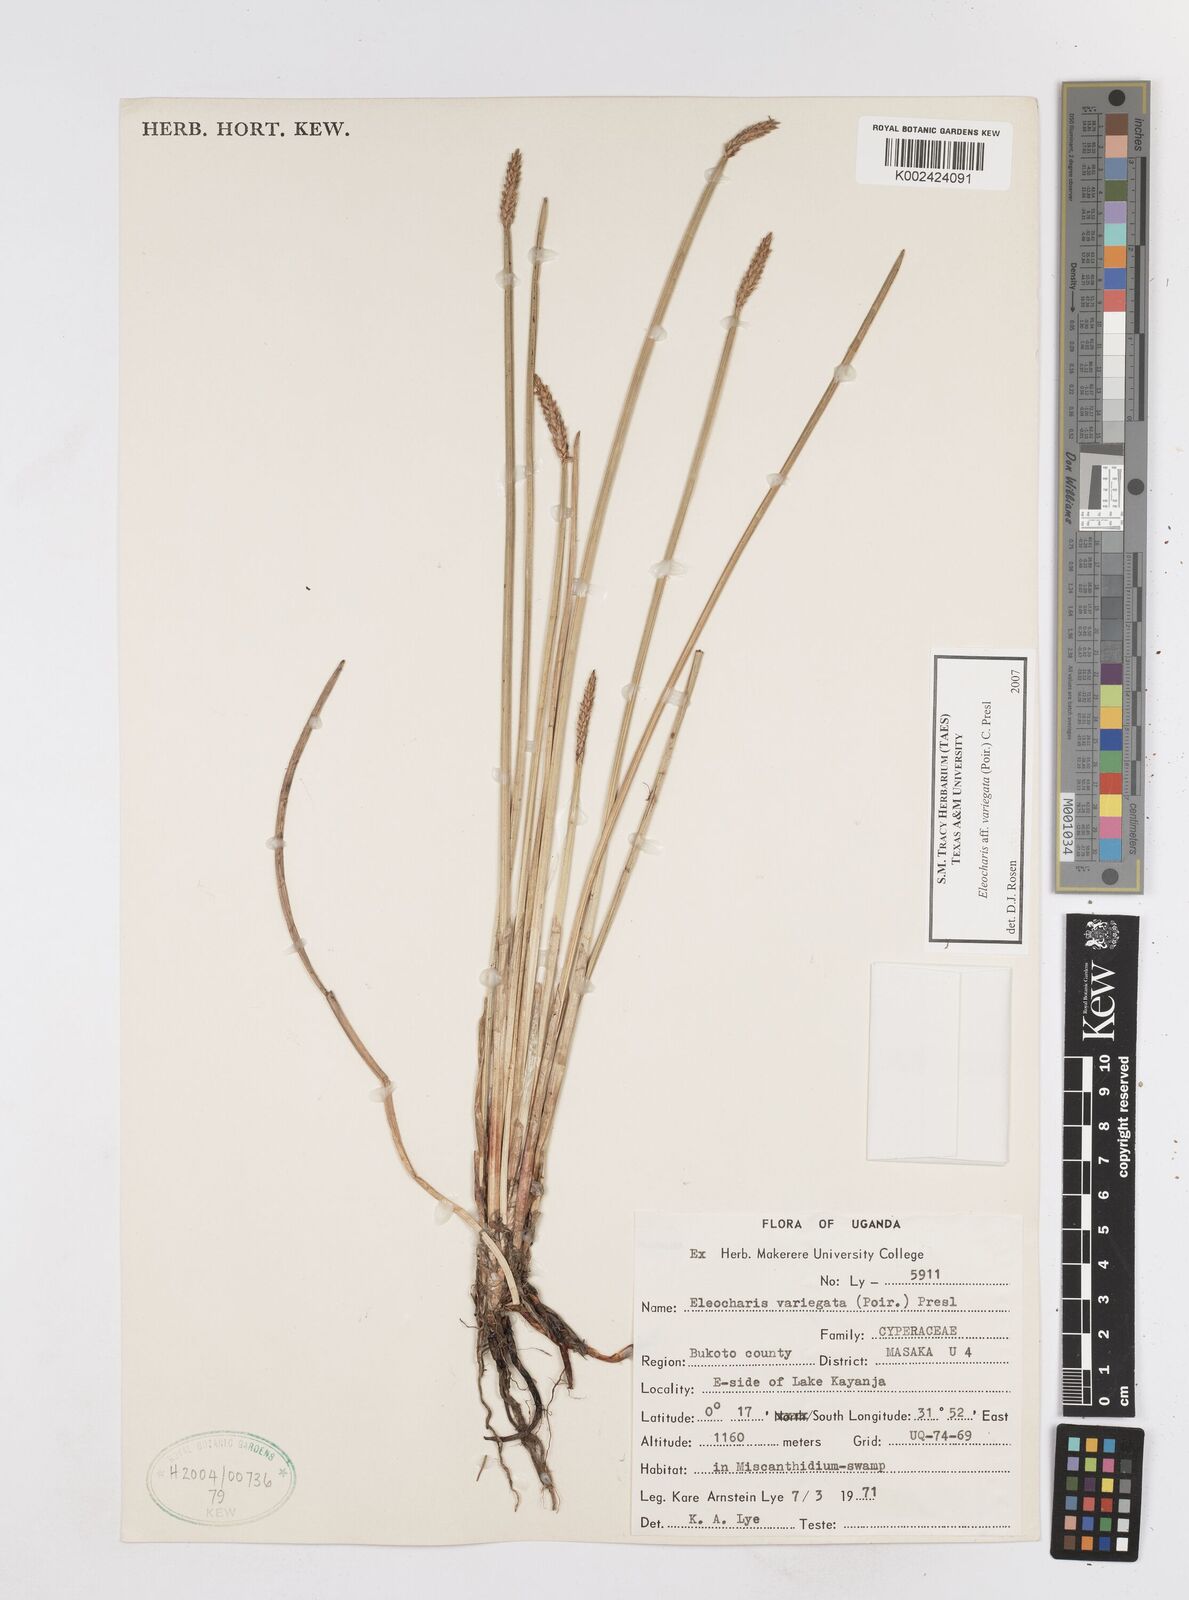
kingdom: Plantae
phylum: Tracheophyta
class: Liliopsida
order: Poales
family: Cyperaceae
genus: Eleocharis
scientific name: Eleocharis variegata
